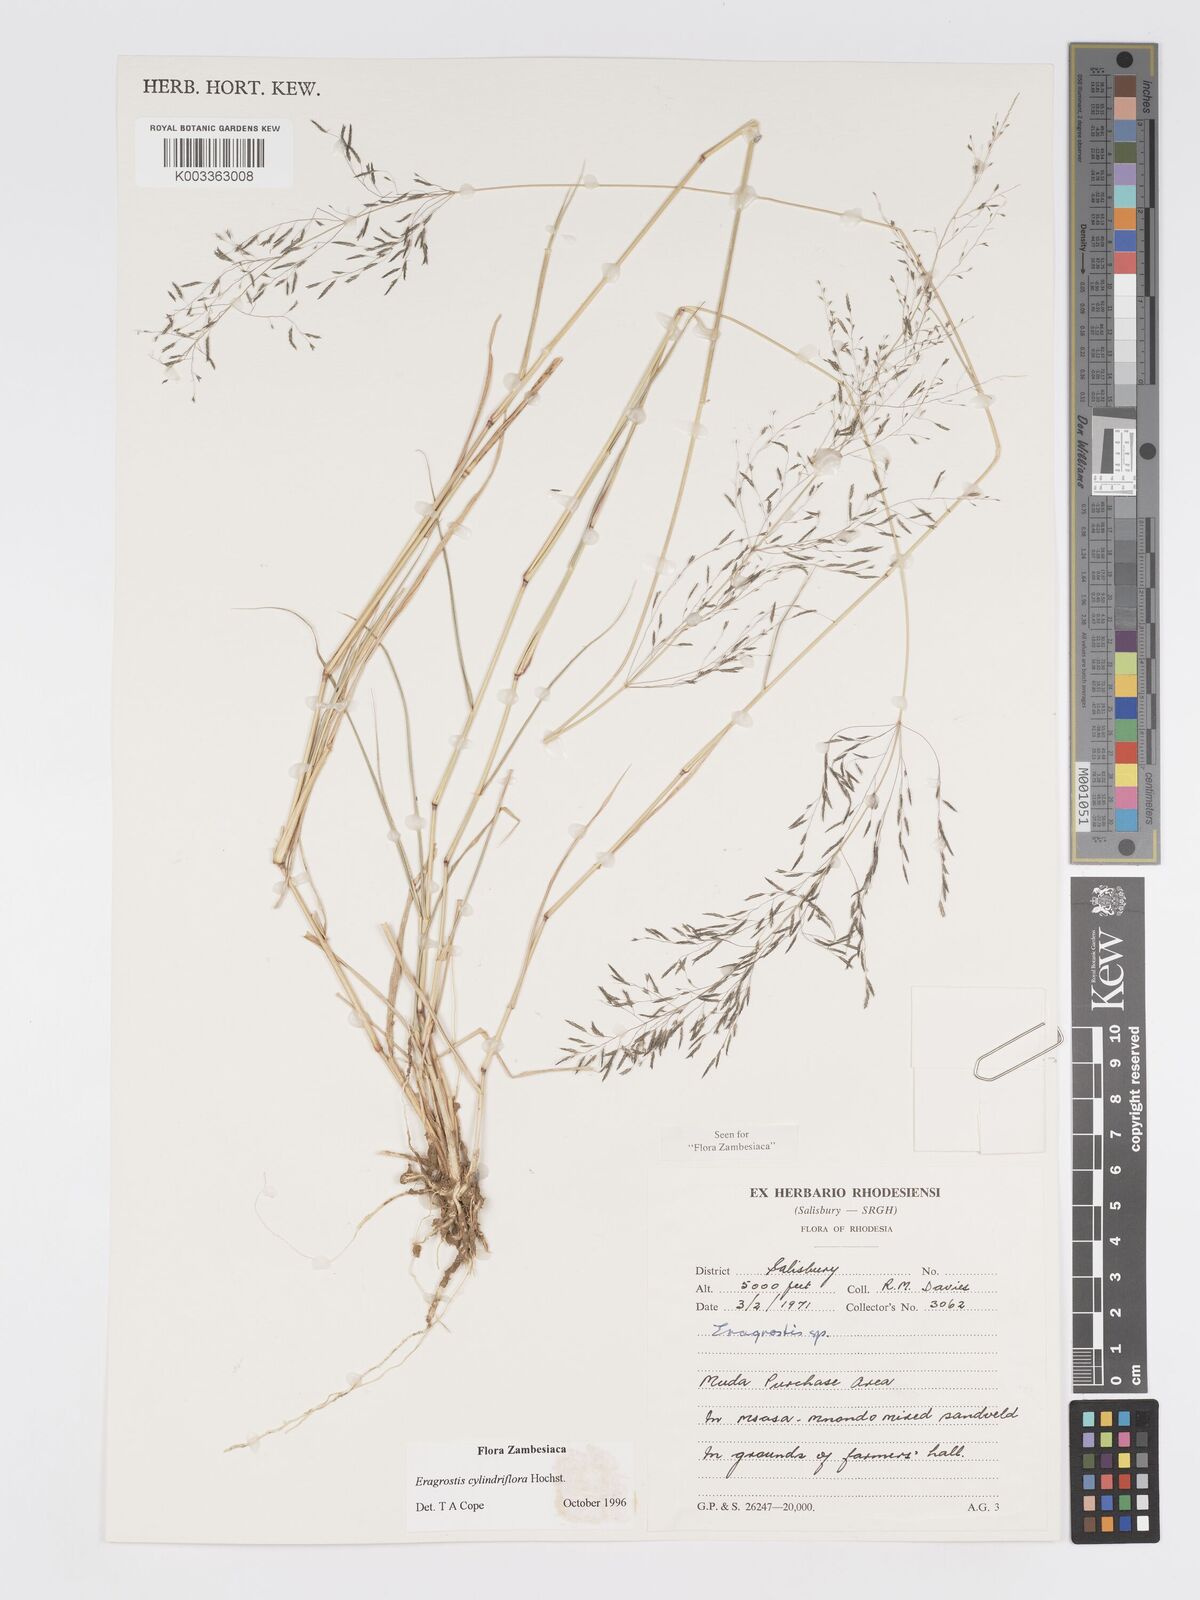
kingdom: Plantae
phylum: Tracheophyta
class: Liliopsida
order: Poales
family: Poaceae
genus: Eragrostis
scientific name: Eragrostis cylindriflora
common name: Cylinderflower lovegrass
